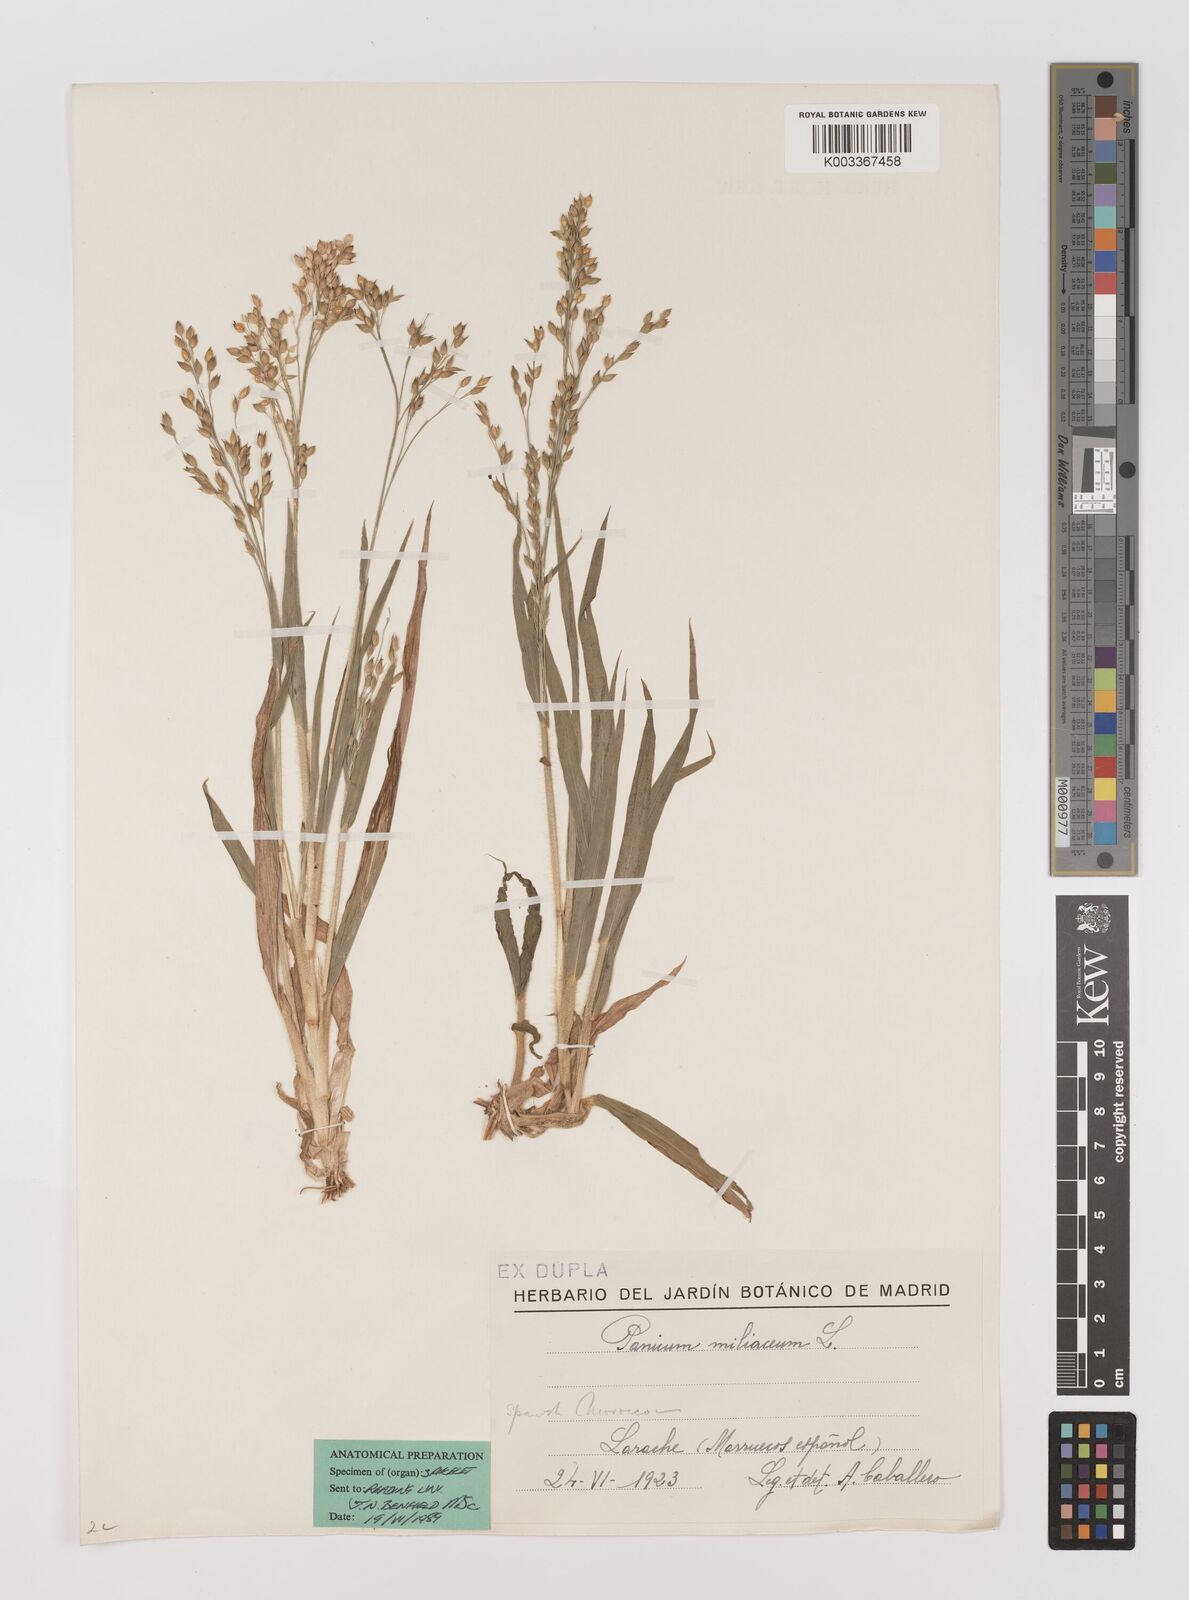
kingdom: Plantae
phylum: Tracheophyta
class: Liliopsida
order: Poales
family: Poaceae
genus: Panicum
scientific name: Panicum miliaceum
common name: Common millet
